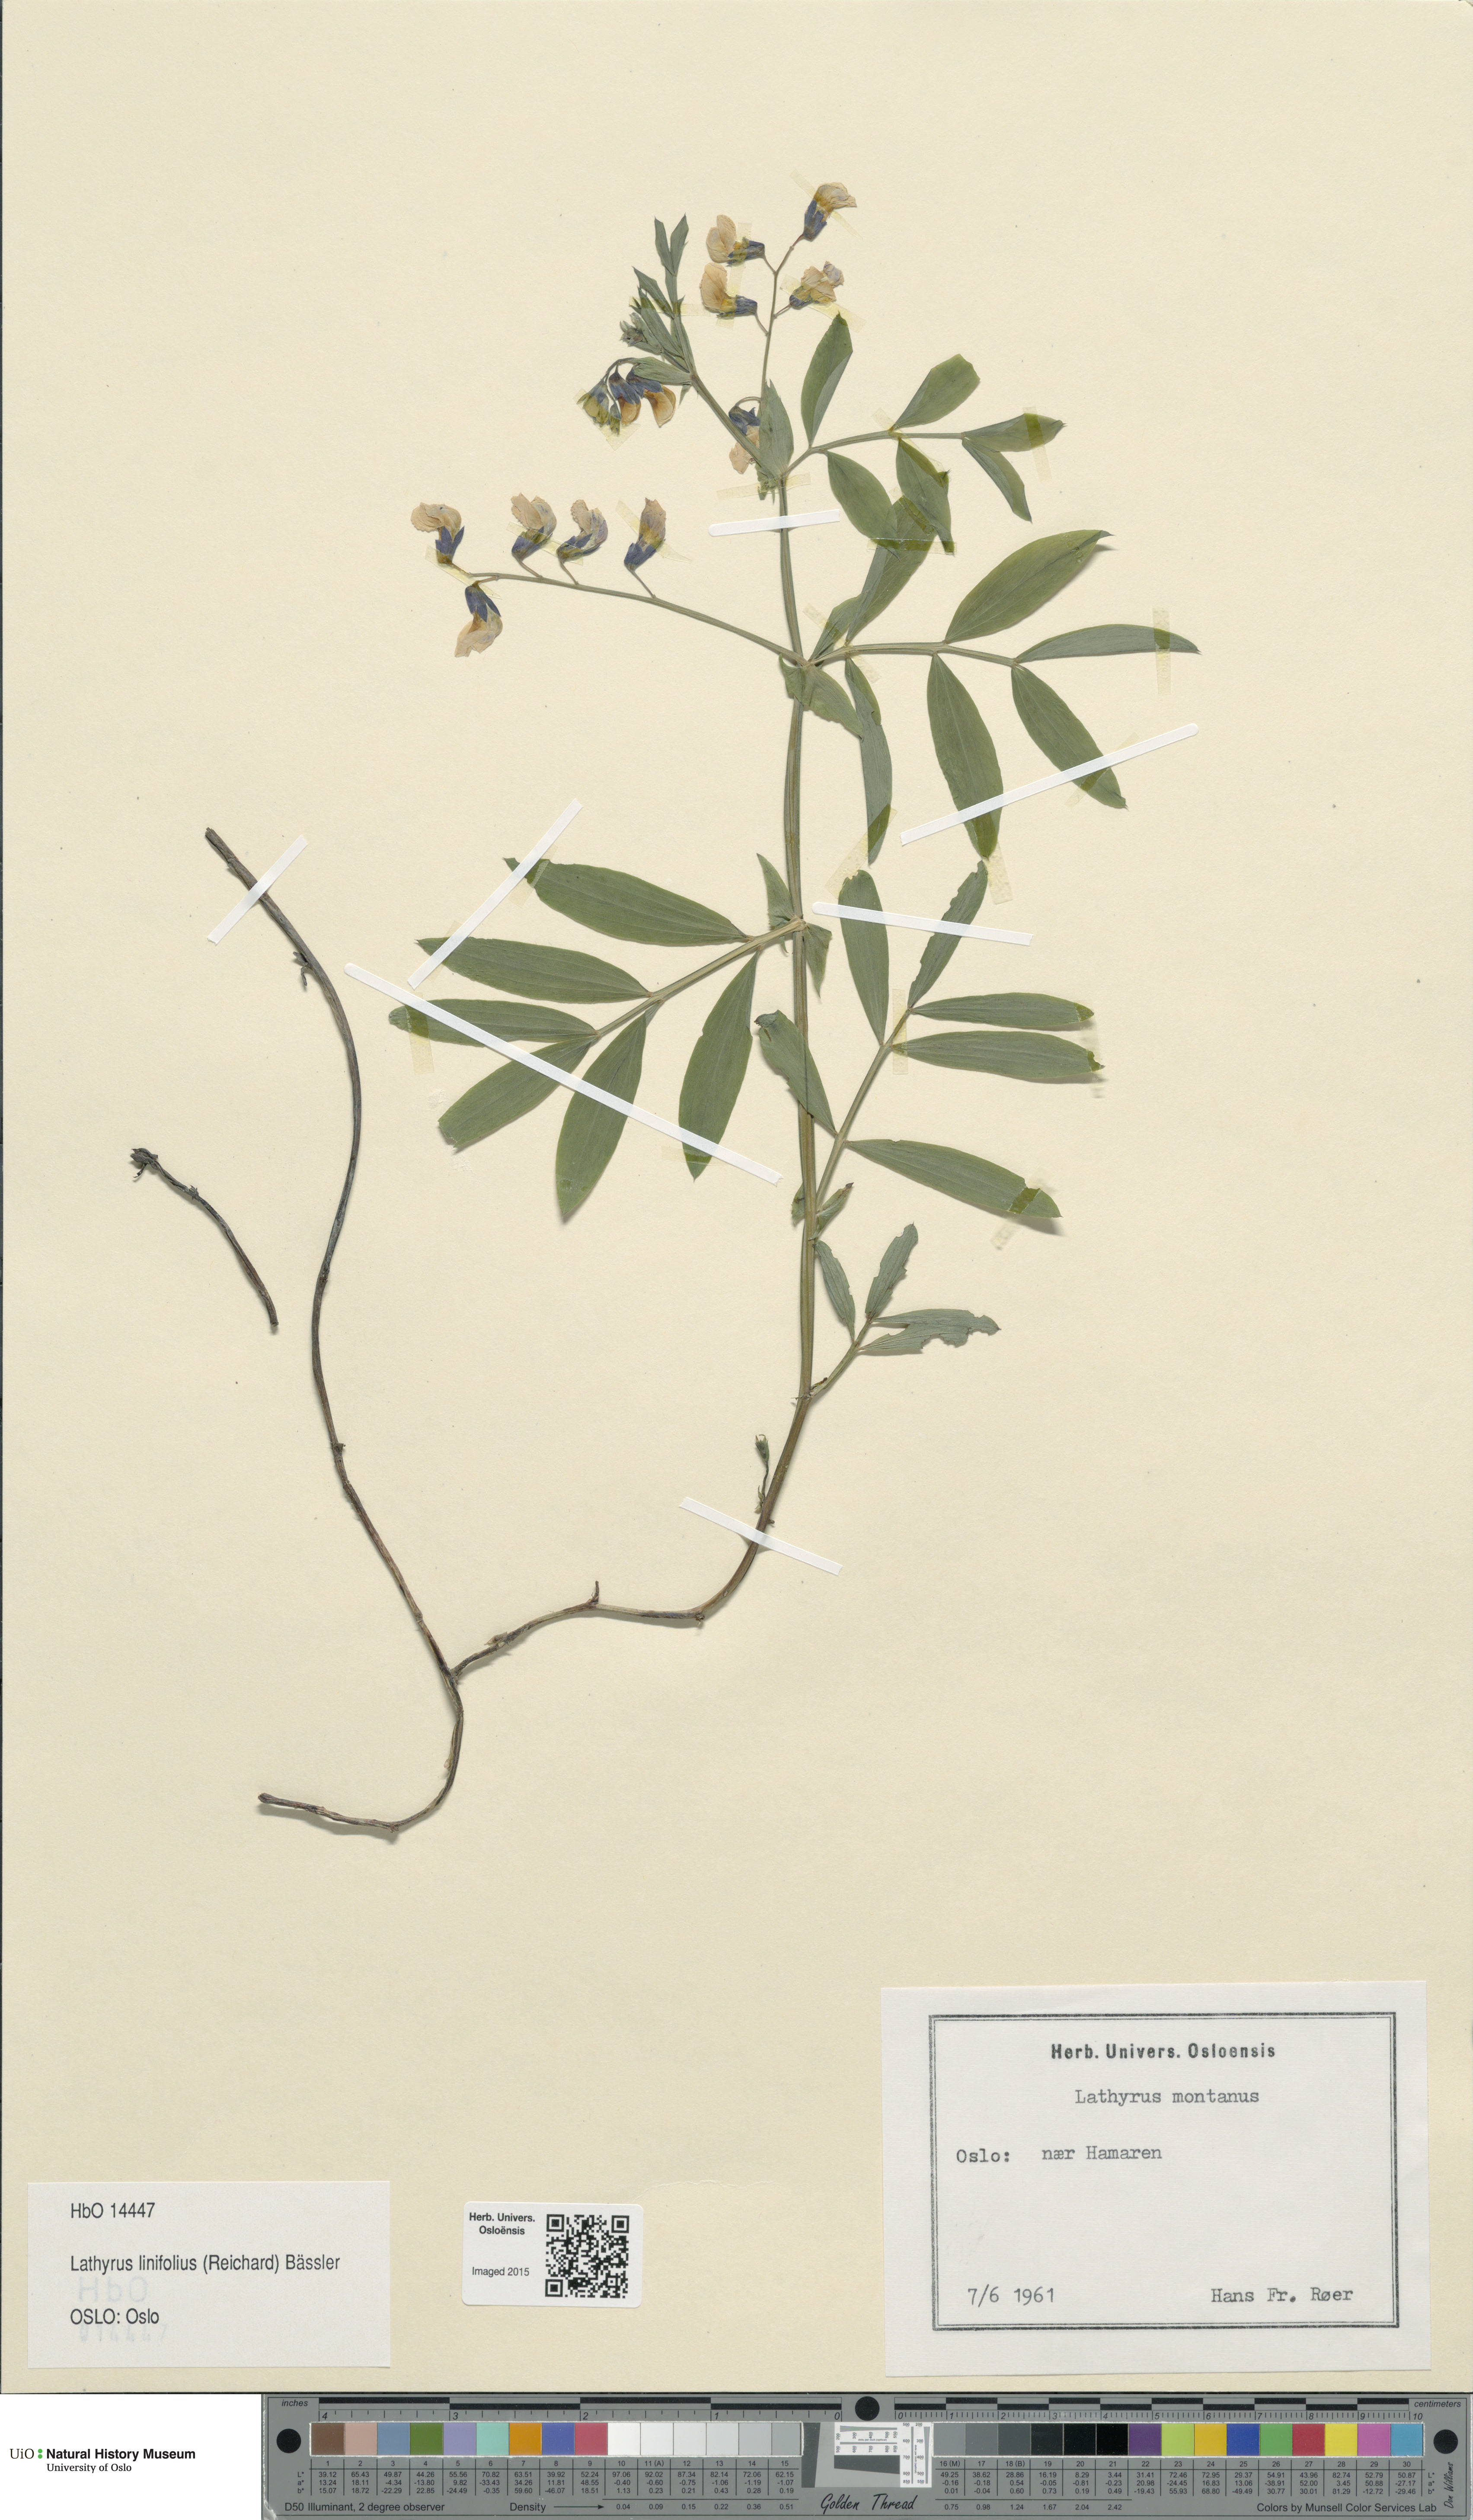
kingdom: Plantae
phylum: Tracheophyta
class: Magnoliopsida
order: Fabales
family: Fabaceae
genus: Lathyrus
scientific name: Lathyrus linifolius
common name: Bitter-vetch
